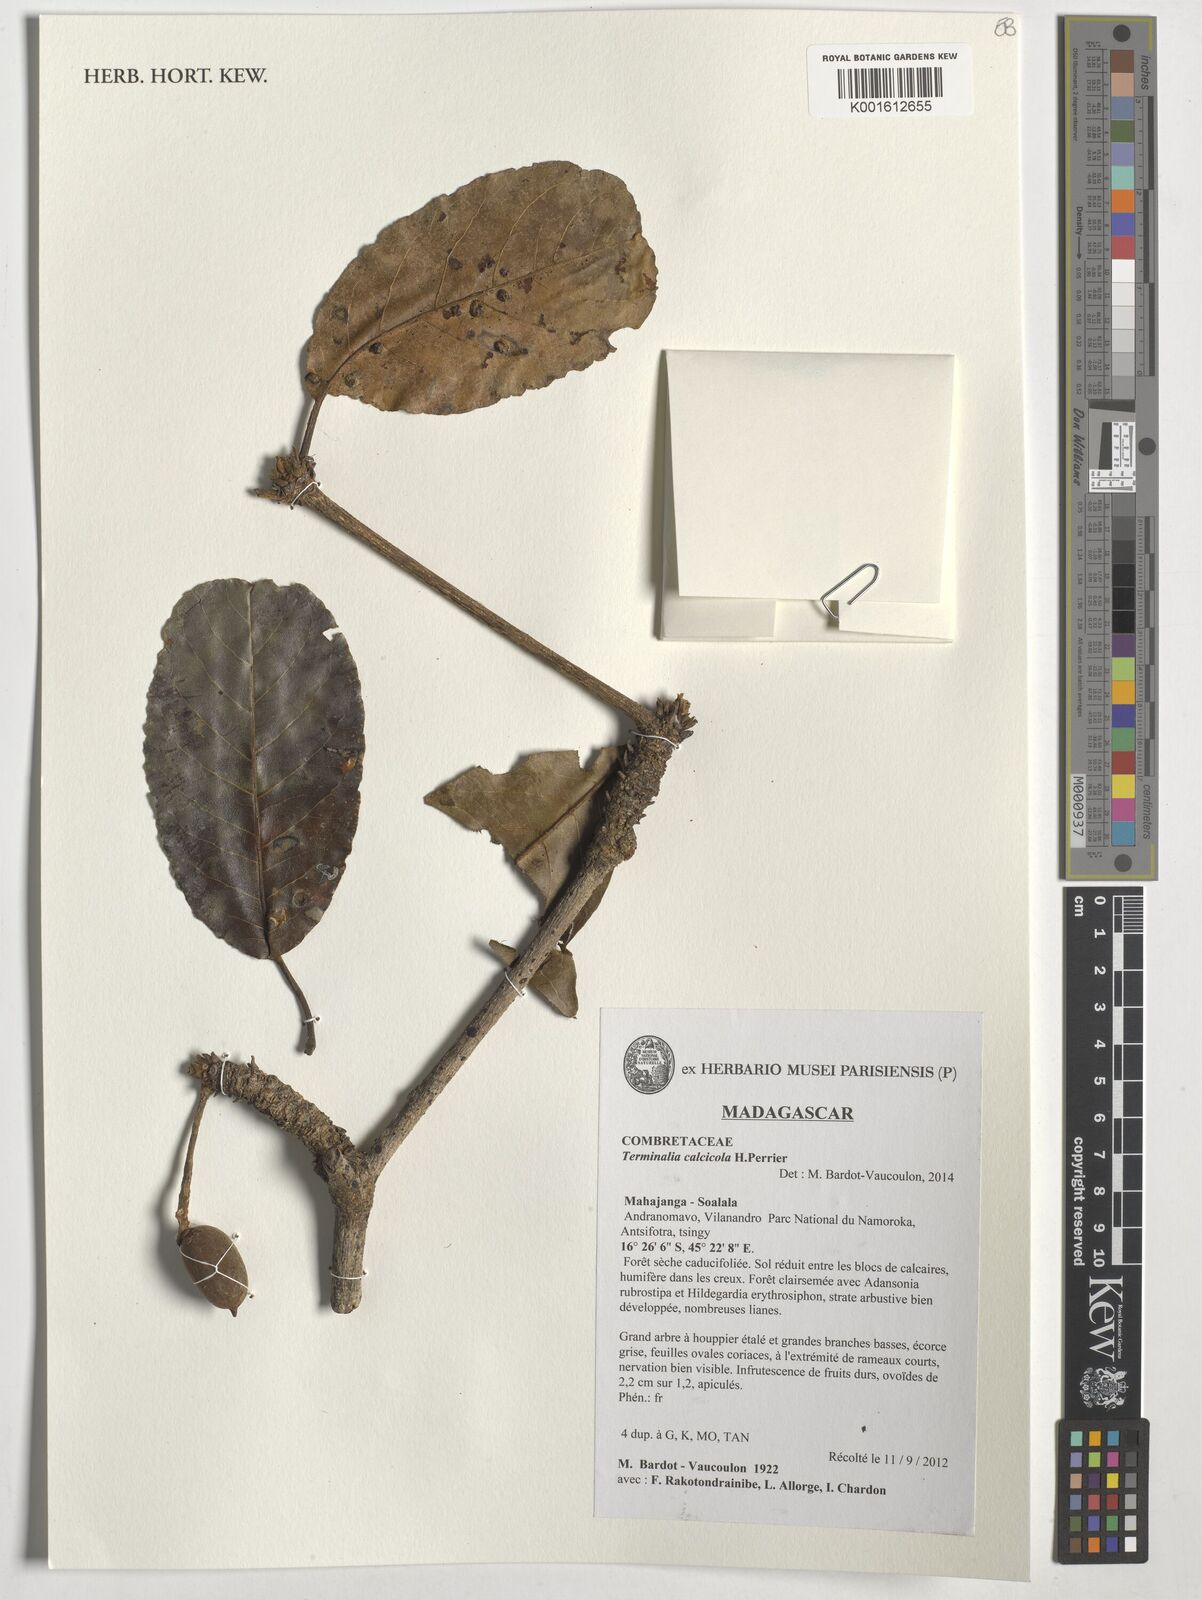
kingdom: Plantae
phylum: Tracheophyta
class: Magnoliopsida
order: Myrtales
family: Combretaceae
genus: Terminalia
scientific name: Terminalia calcicola
